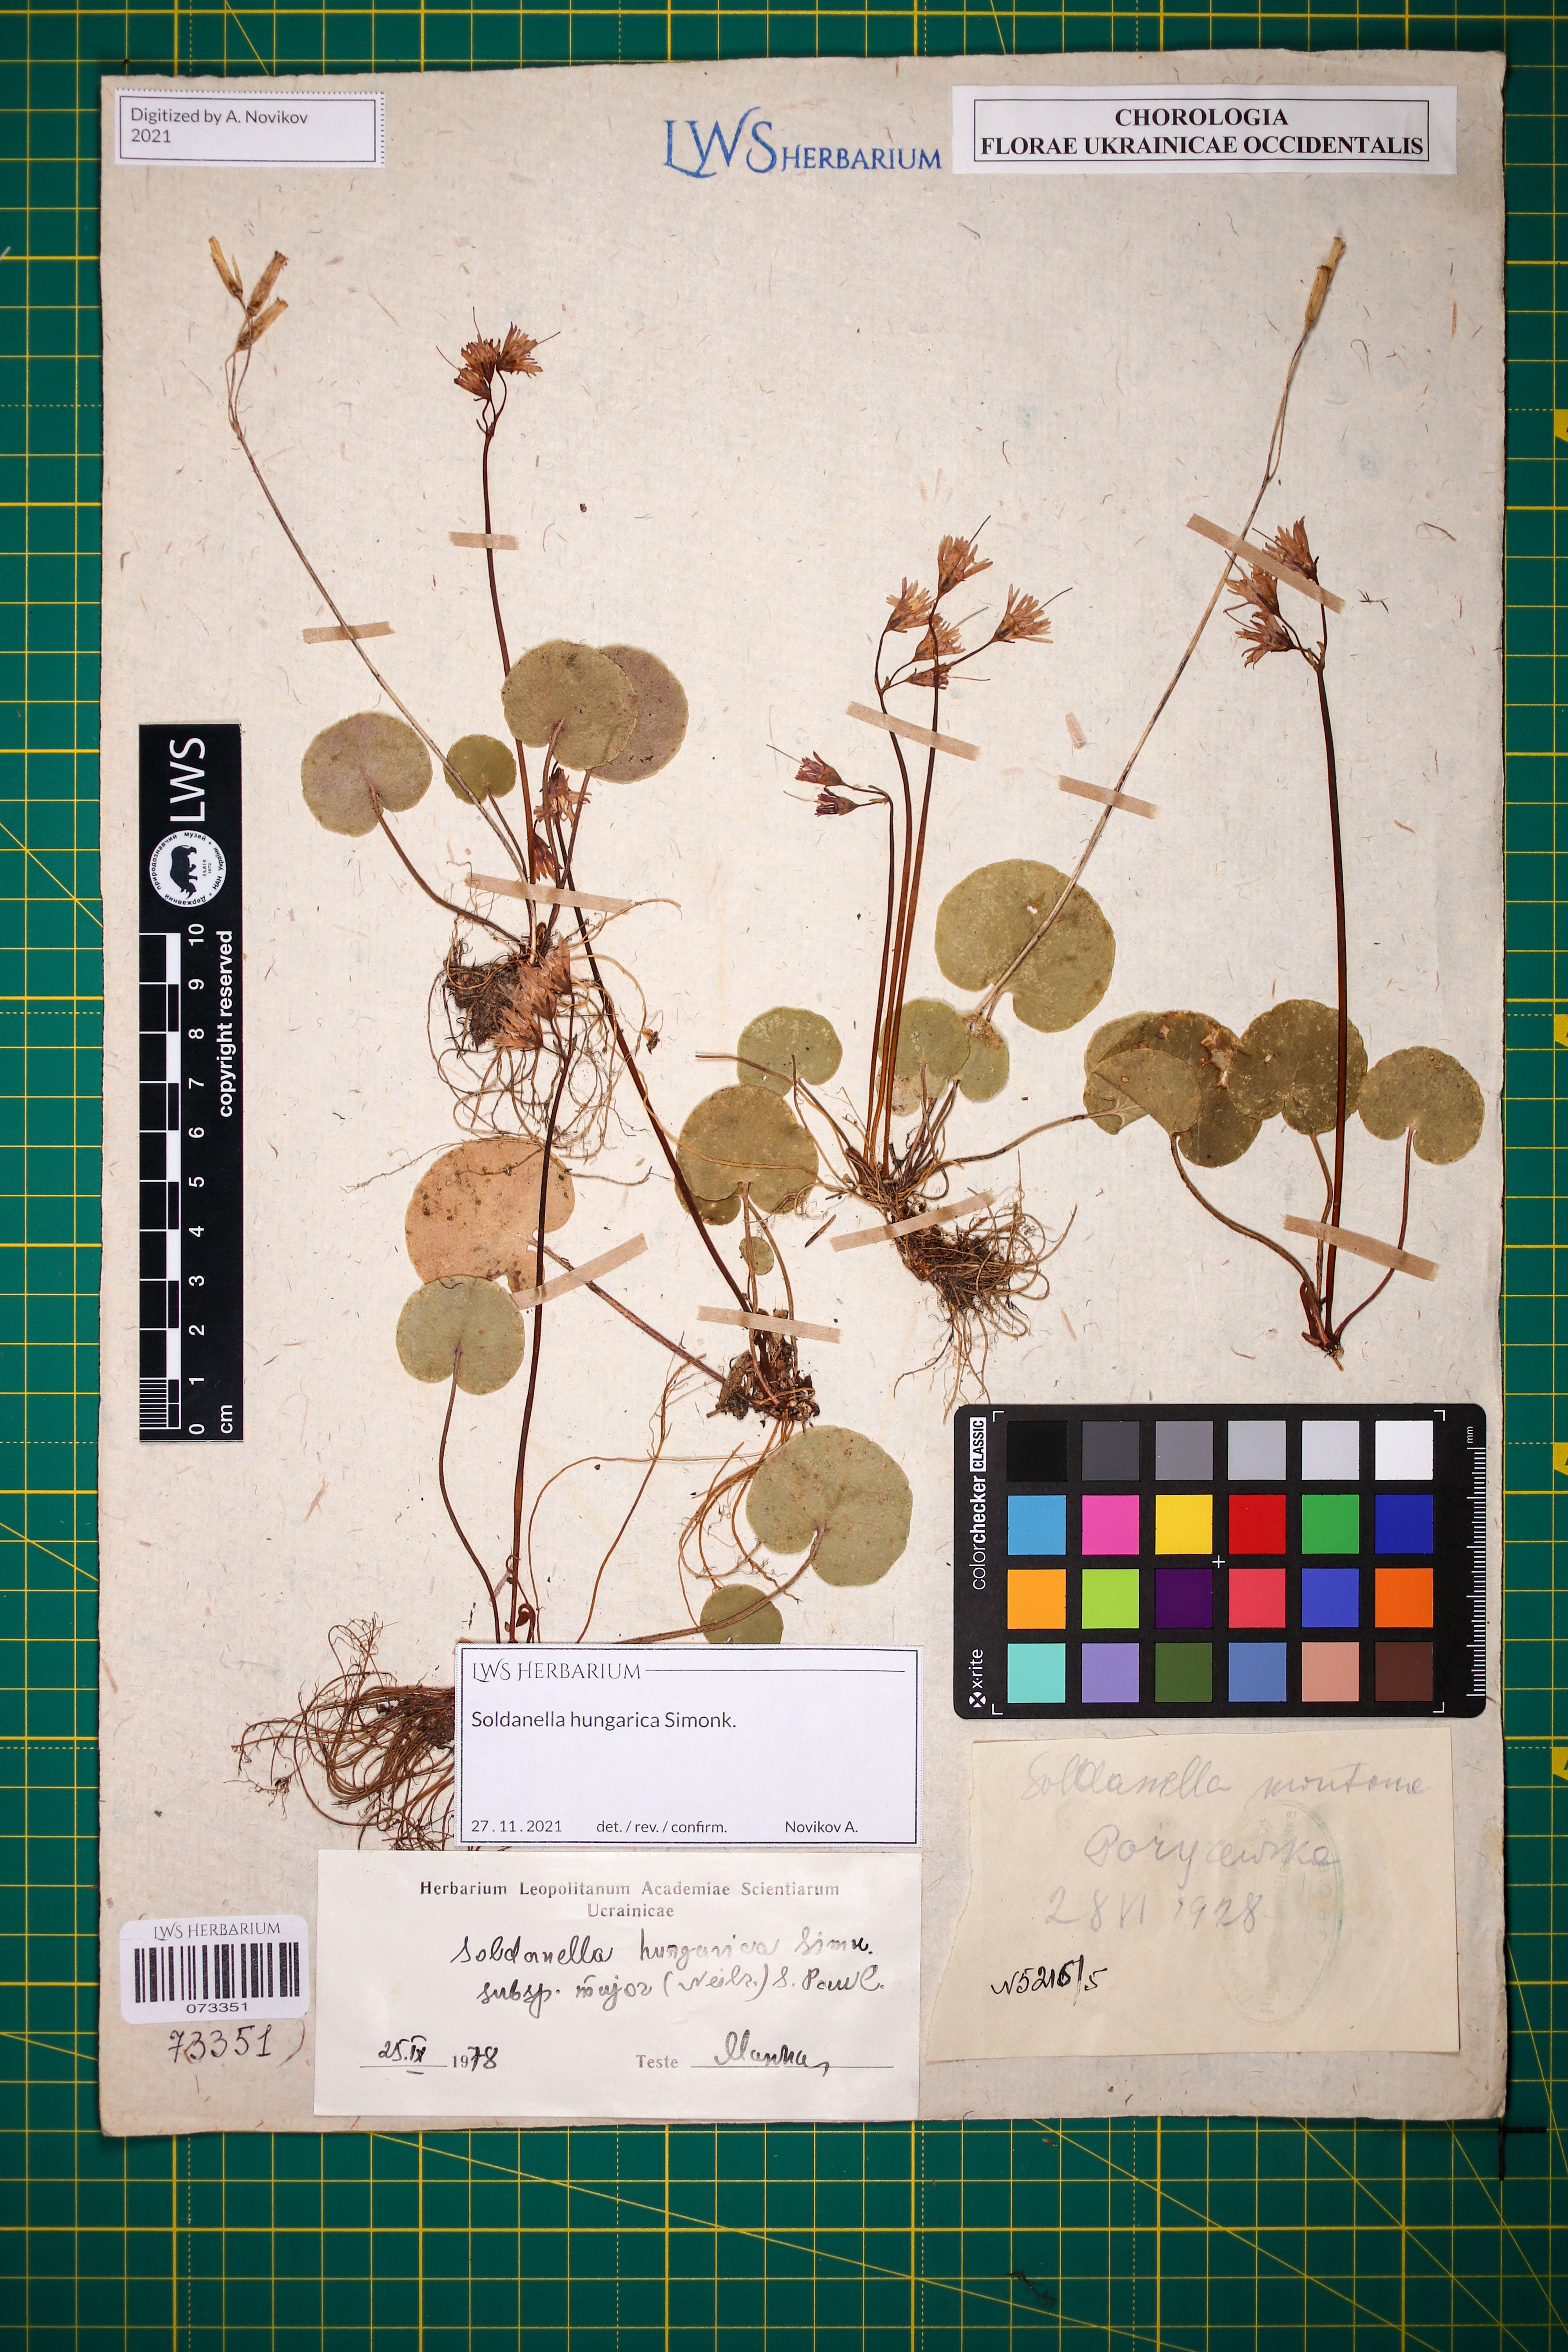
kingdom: Plantae
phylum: Tracheophyta
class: Magnoliopsida
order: Ericales
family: Primulaceae
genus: Soldanella
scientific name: Soldanella hungarica
